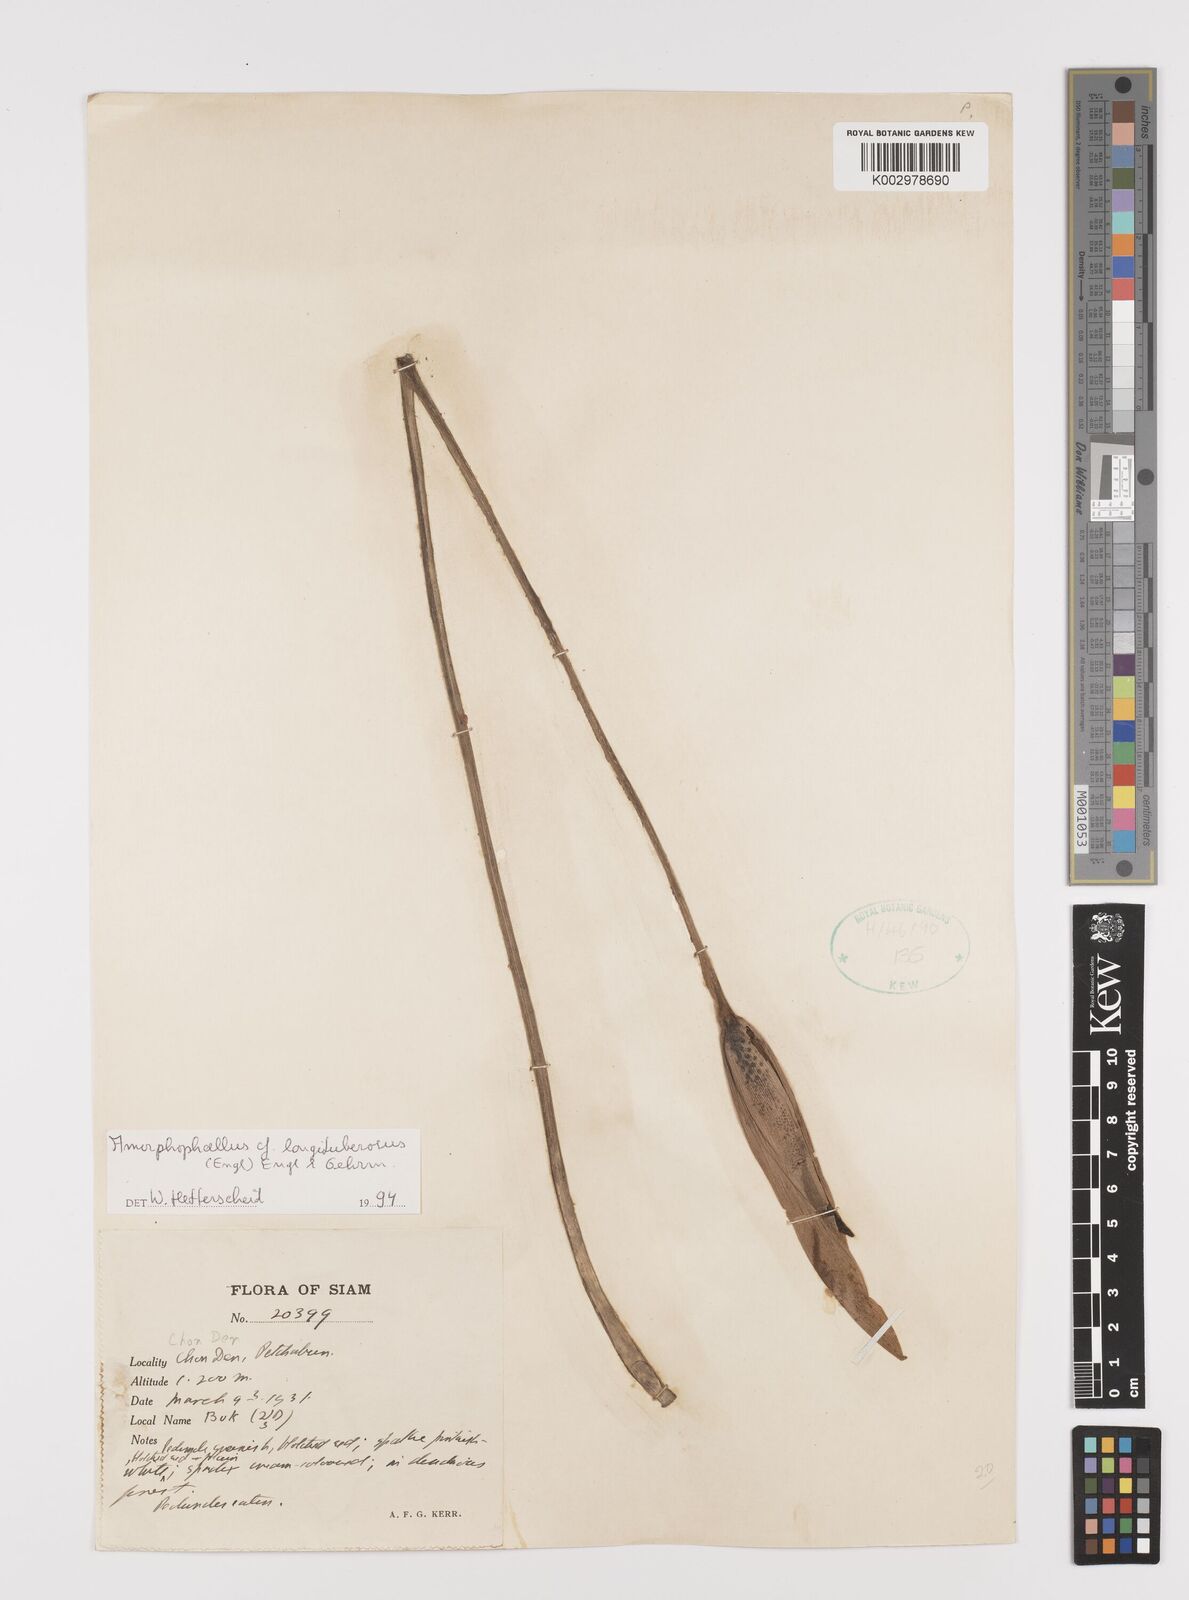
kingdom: Plantae
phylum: Tracheophyta
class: Liliopsida
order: Alismatales
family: Araceae
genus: Amorphophallus
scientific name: Amorphophallus longituberosus
